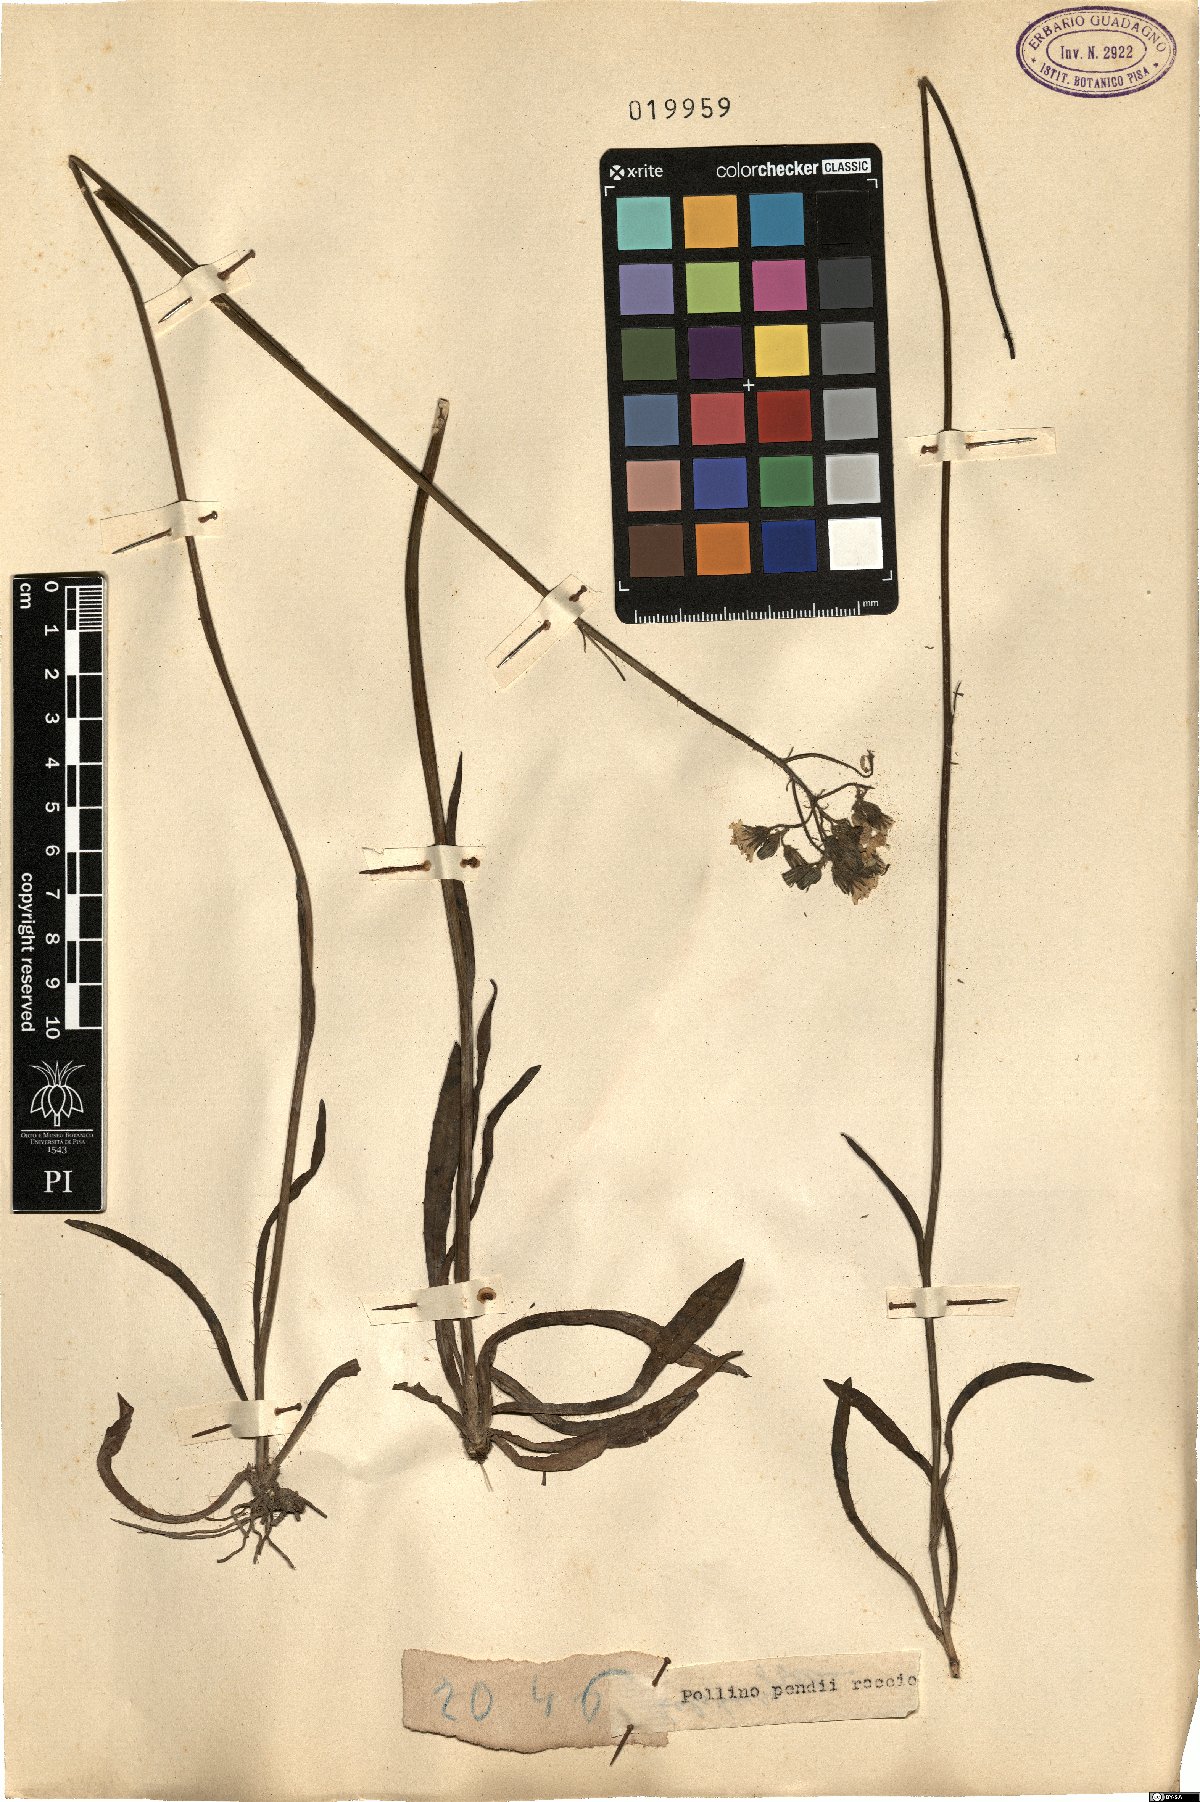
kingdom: Plantae
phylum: Tracheophyta
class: Magnoliopsida
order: Asterales
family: Asteraceae
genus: Hieracium
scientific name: Hieracium
